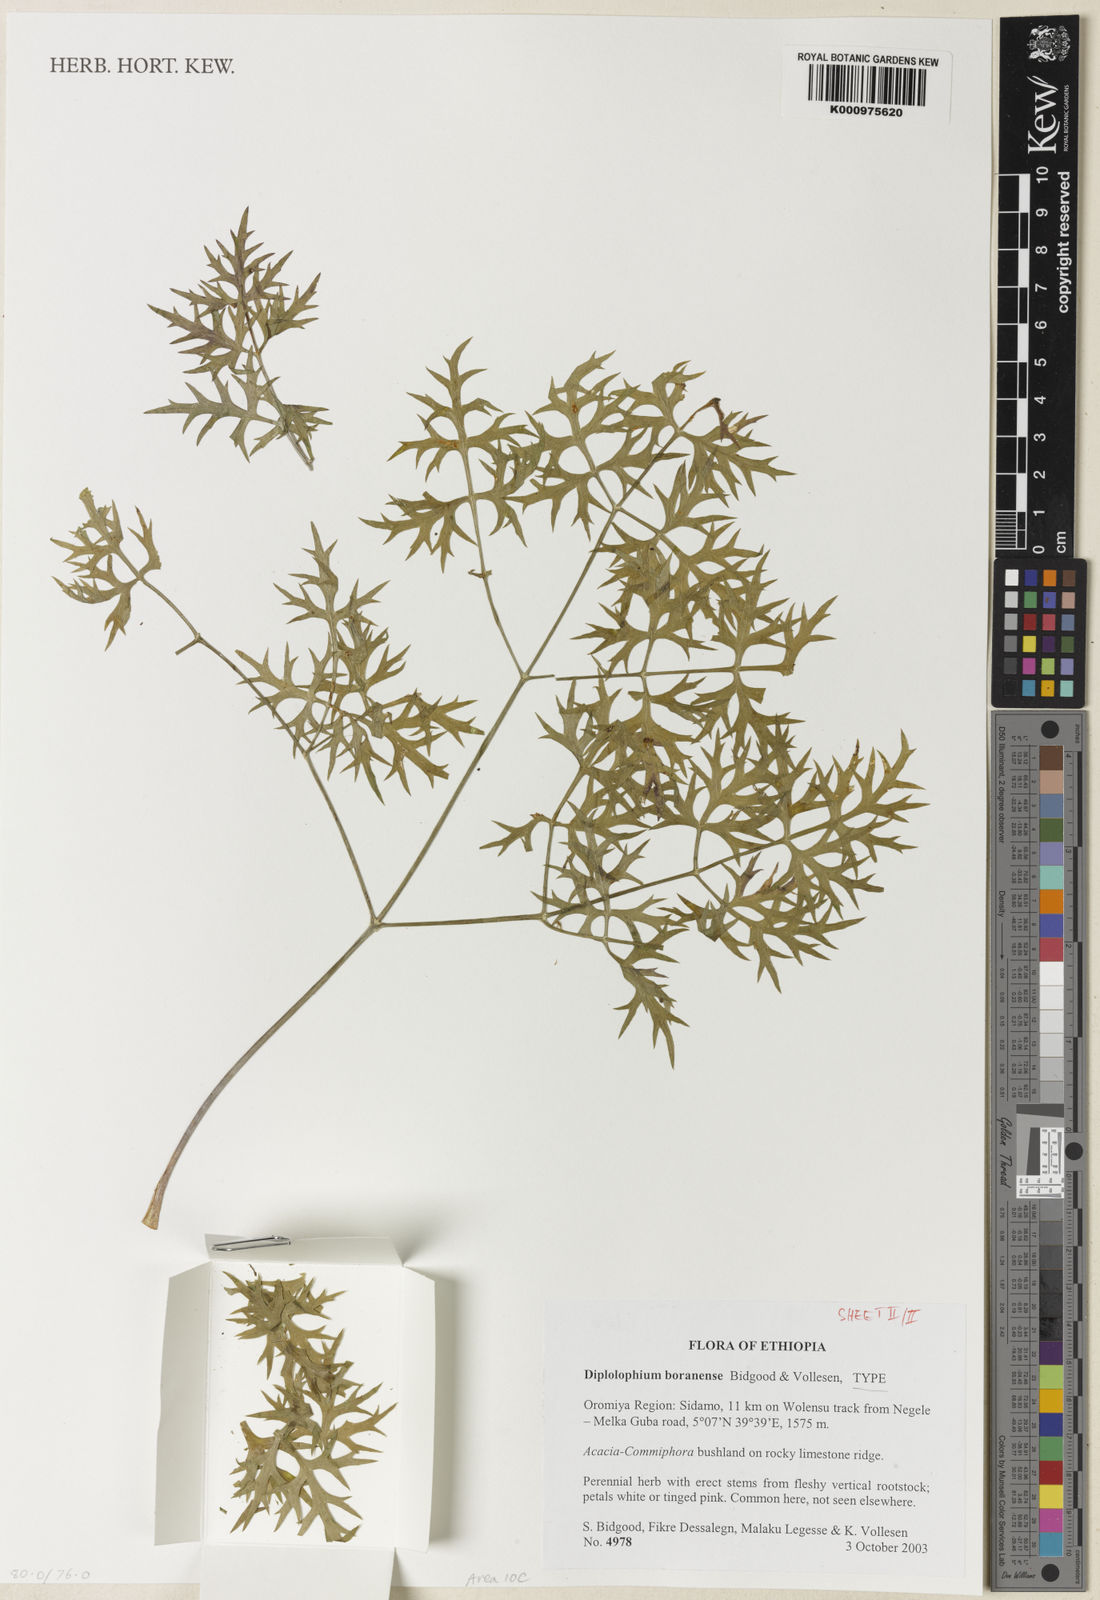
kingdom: Plantae
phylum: Tracheophyta
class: Magnoliopsida
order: Apiales
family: Apiaceae
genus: Diplolophium
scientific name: Diplolophium boranense
